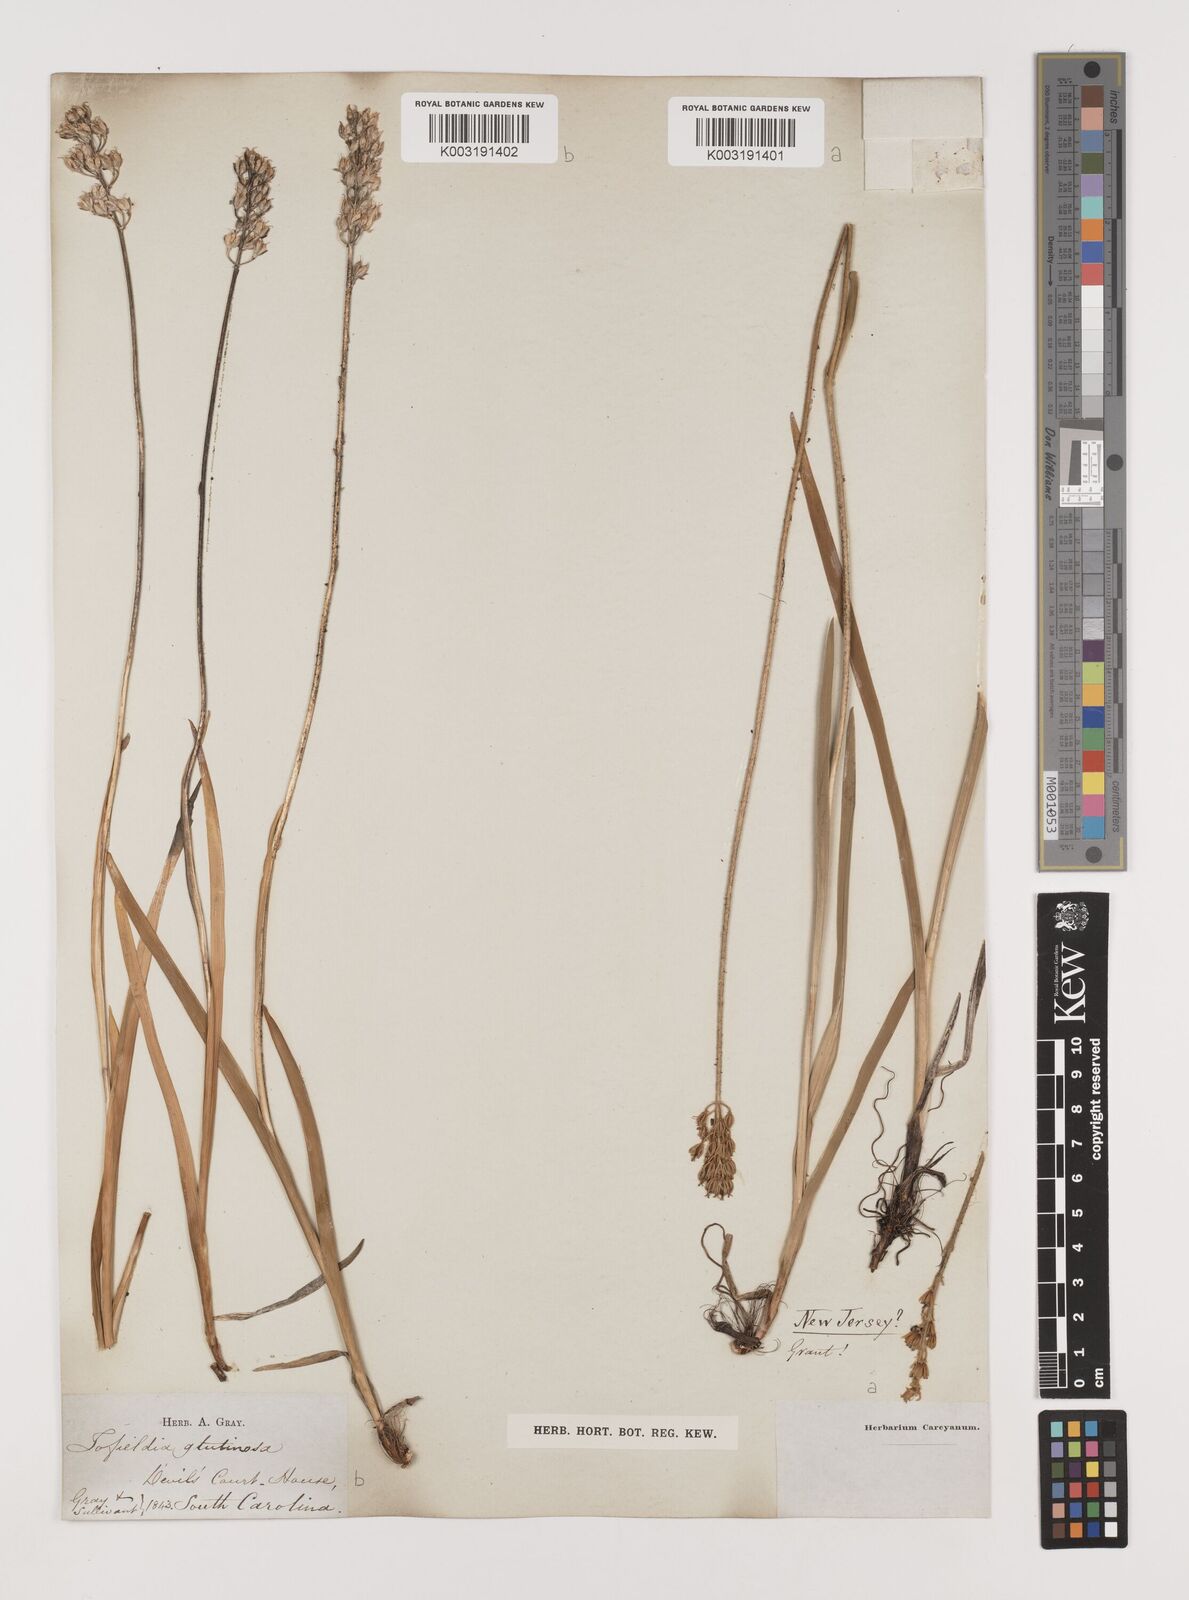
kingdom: Plantae
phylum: Tracheophyta
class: Liliopsida
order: Alismatales
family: Tofieldiaceae
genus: Triantha
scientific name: Triantha glutinosa
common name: Glutinous tofieldia
